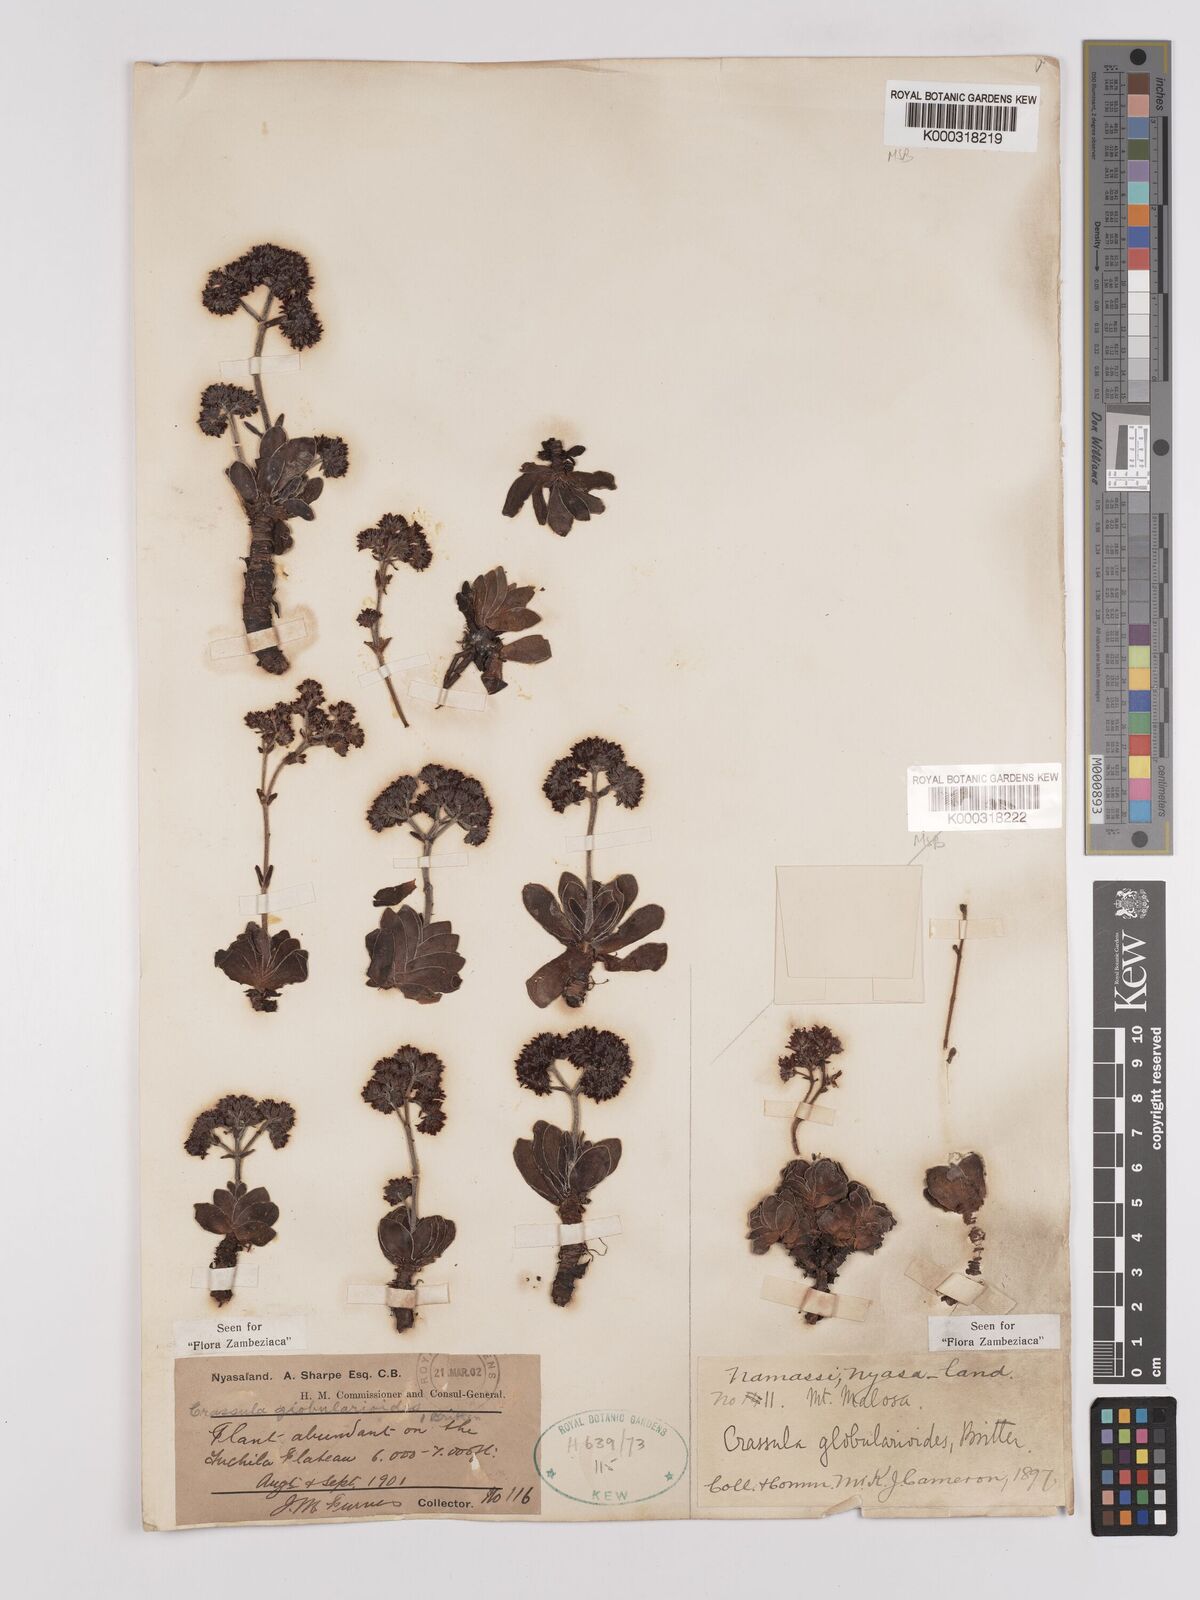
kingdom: Plantae
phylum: Tracheophyta
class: Magnoliopsida
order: Saxifragales
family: Crassulaceae
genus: Crassula
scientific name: Crassula globularioides
